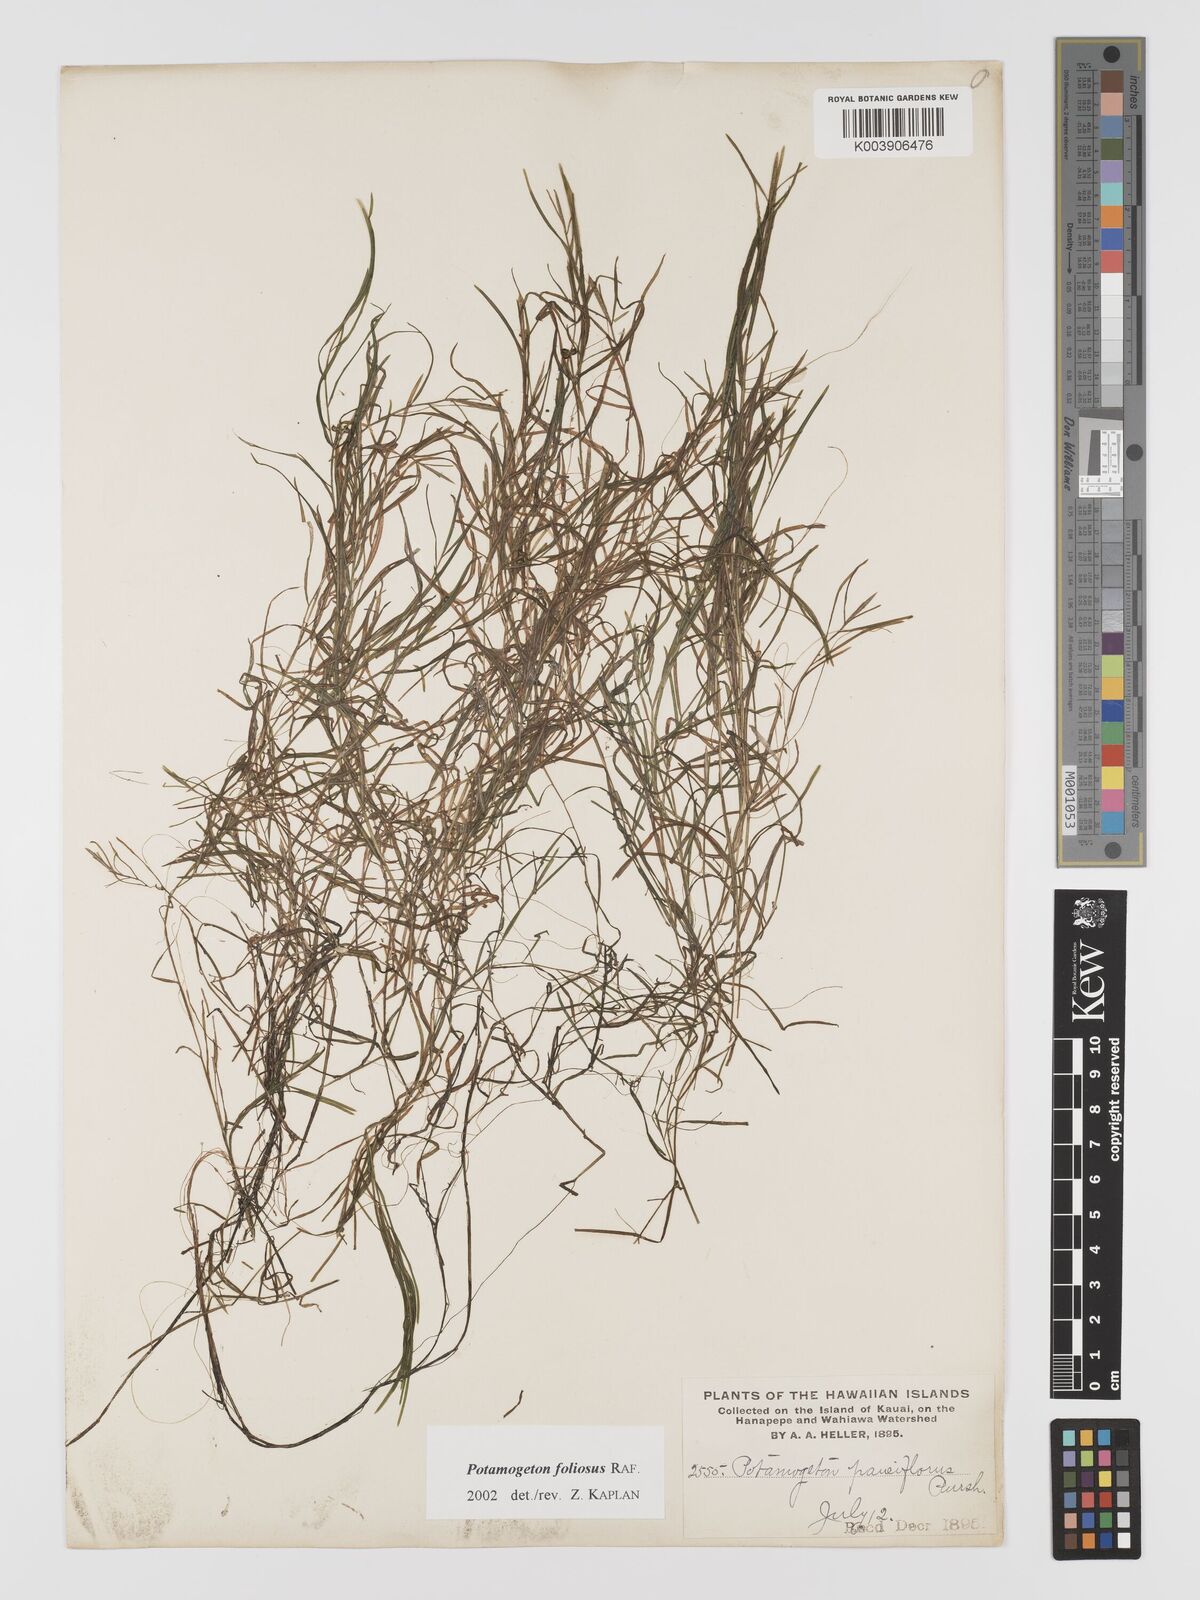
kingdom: Plantae
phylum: Tracheophyta
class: Liliopsida
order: Alismatales
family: Potamogetonaceae
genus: Potamogeton
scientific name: Potamogeton foliosus
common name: Leafy pondweed
